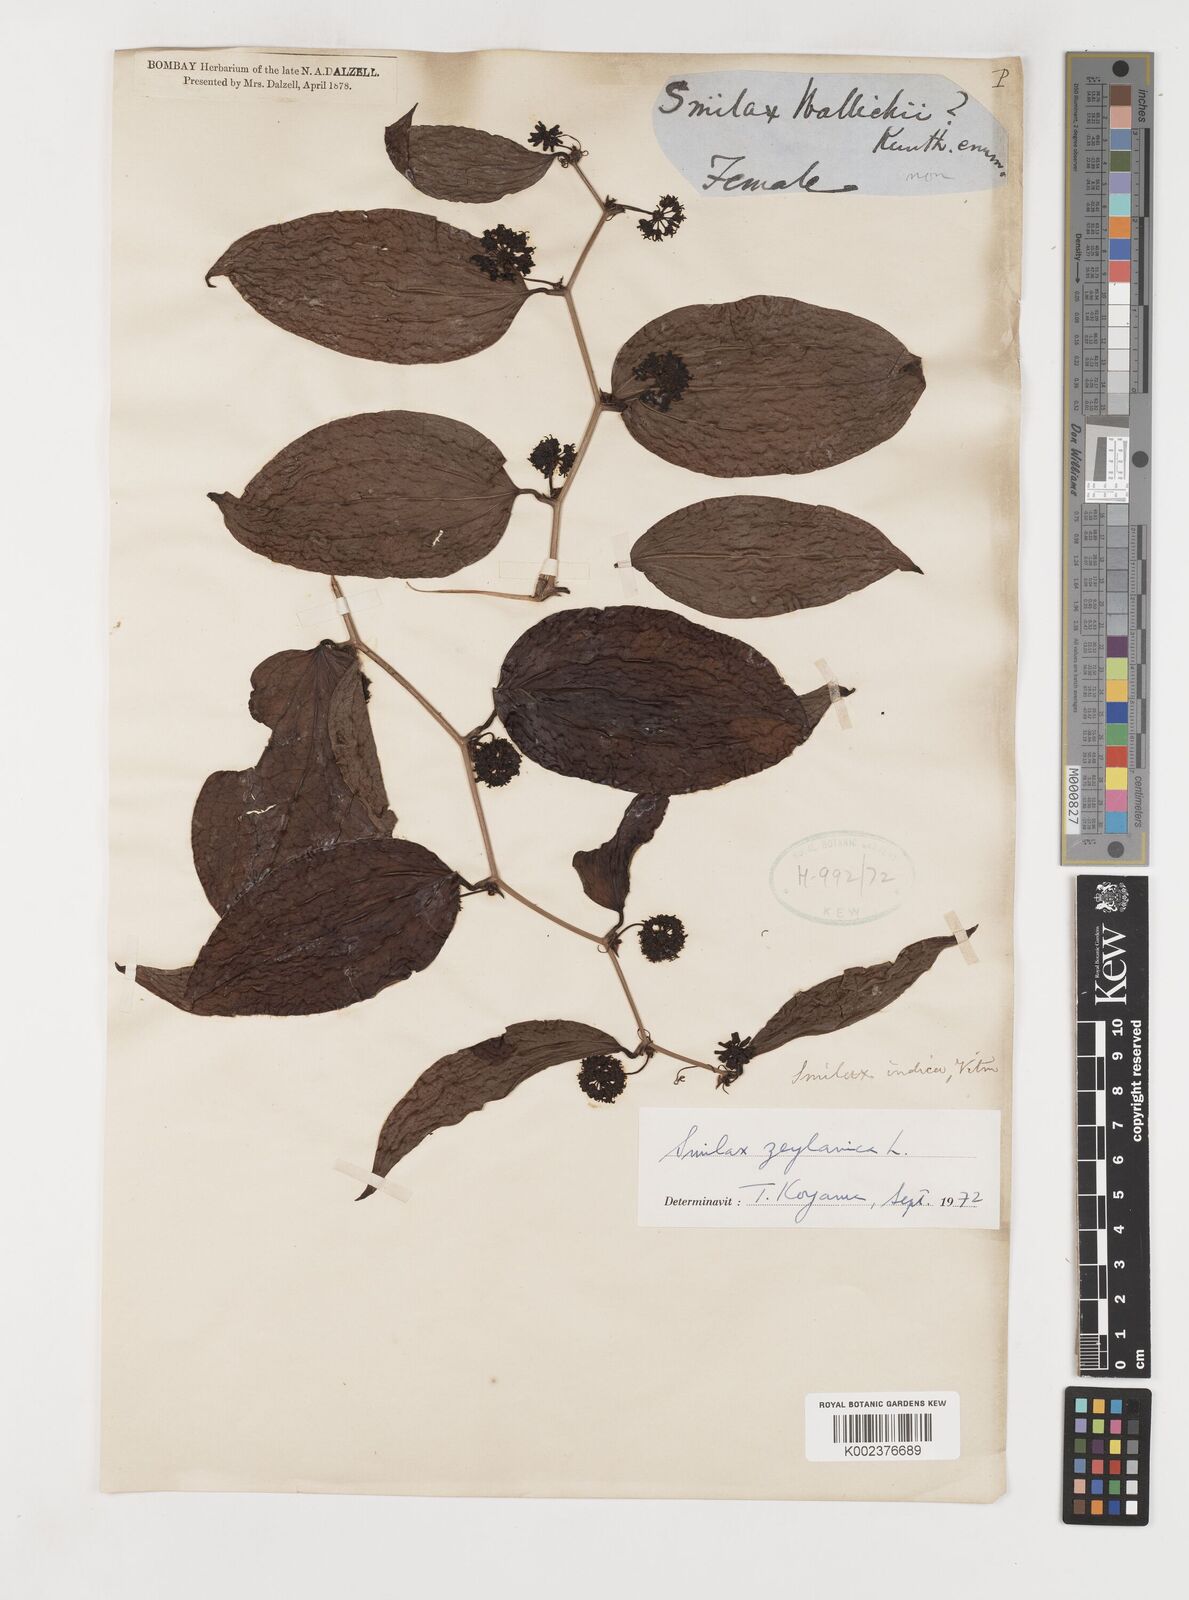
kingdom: Plantae
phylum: Tracheophyta
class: Liliopsida
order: Liliales
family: Smilacaceae
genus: Smilax
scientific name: Smilax zeylanica
